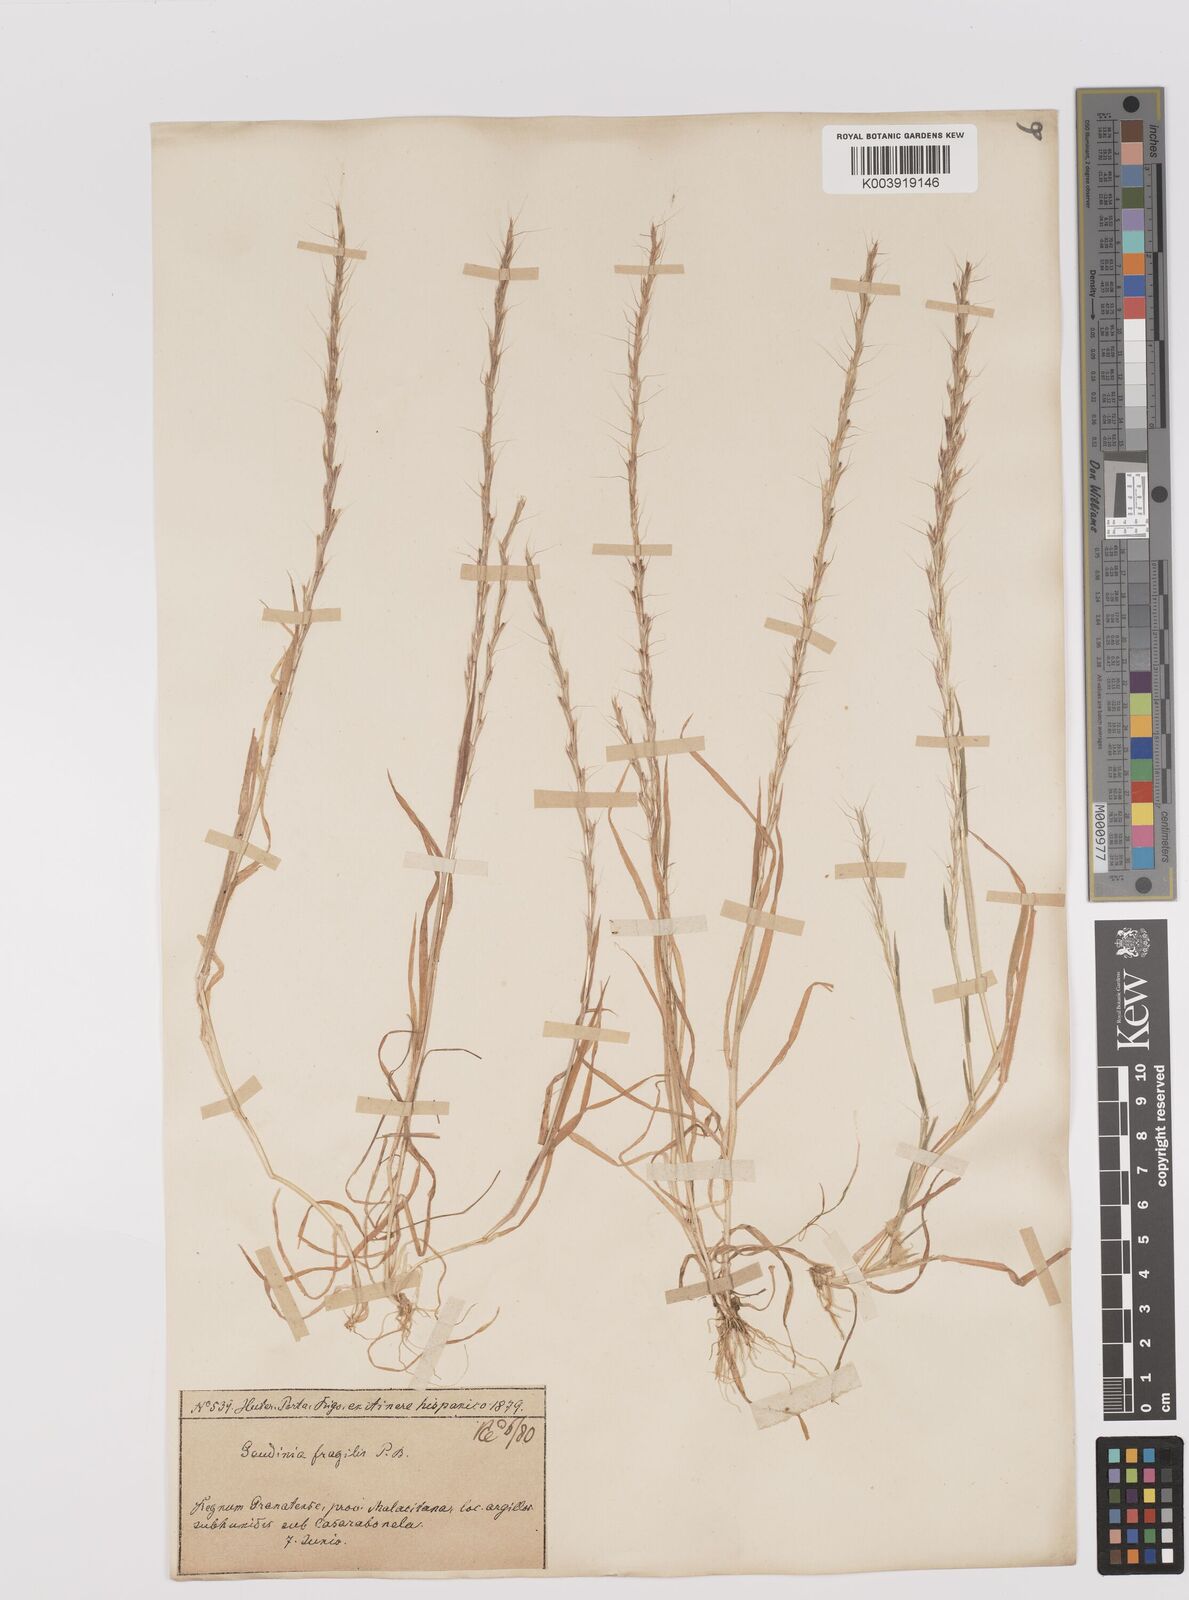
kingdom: Plantae
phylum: Tracheophyta
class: Liliopsida
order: Poales
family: Poaceae
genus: Gaudinia
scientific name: Gaudinia fragilis
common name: French oat-grass
